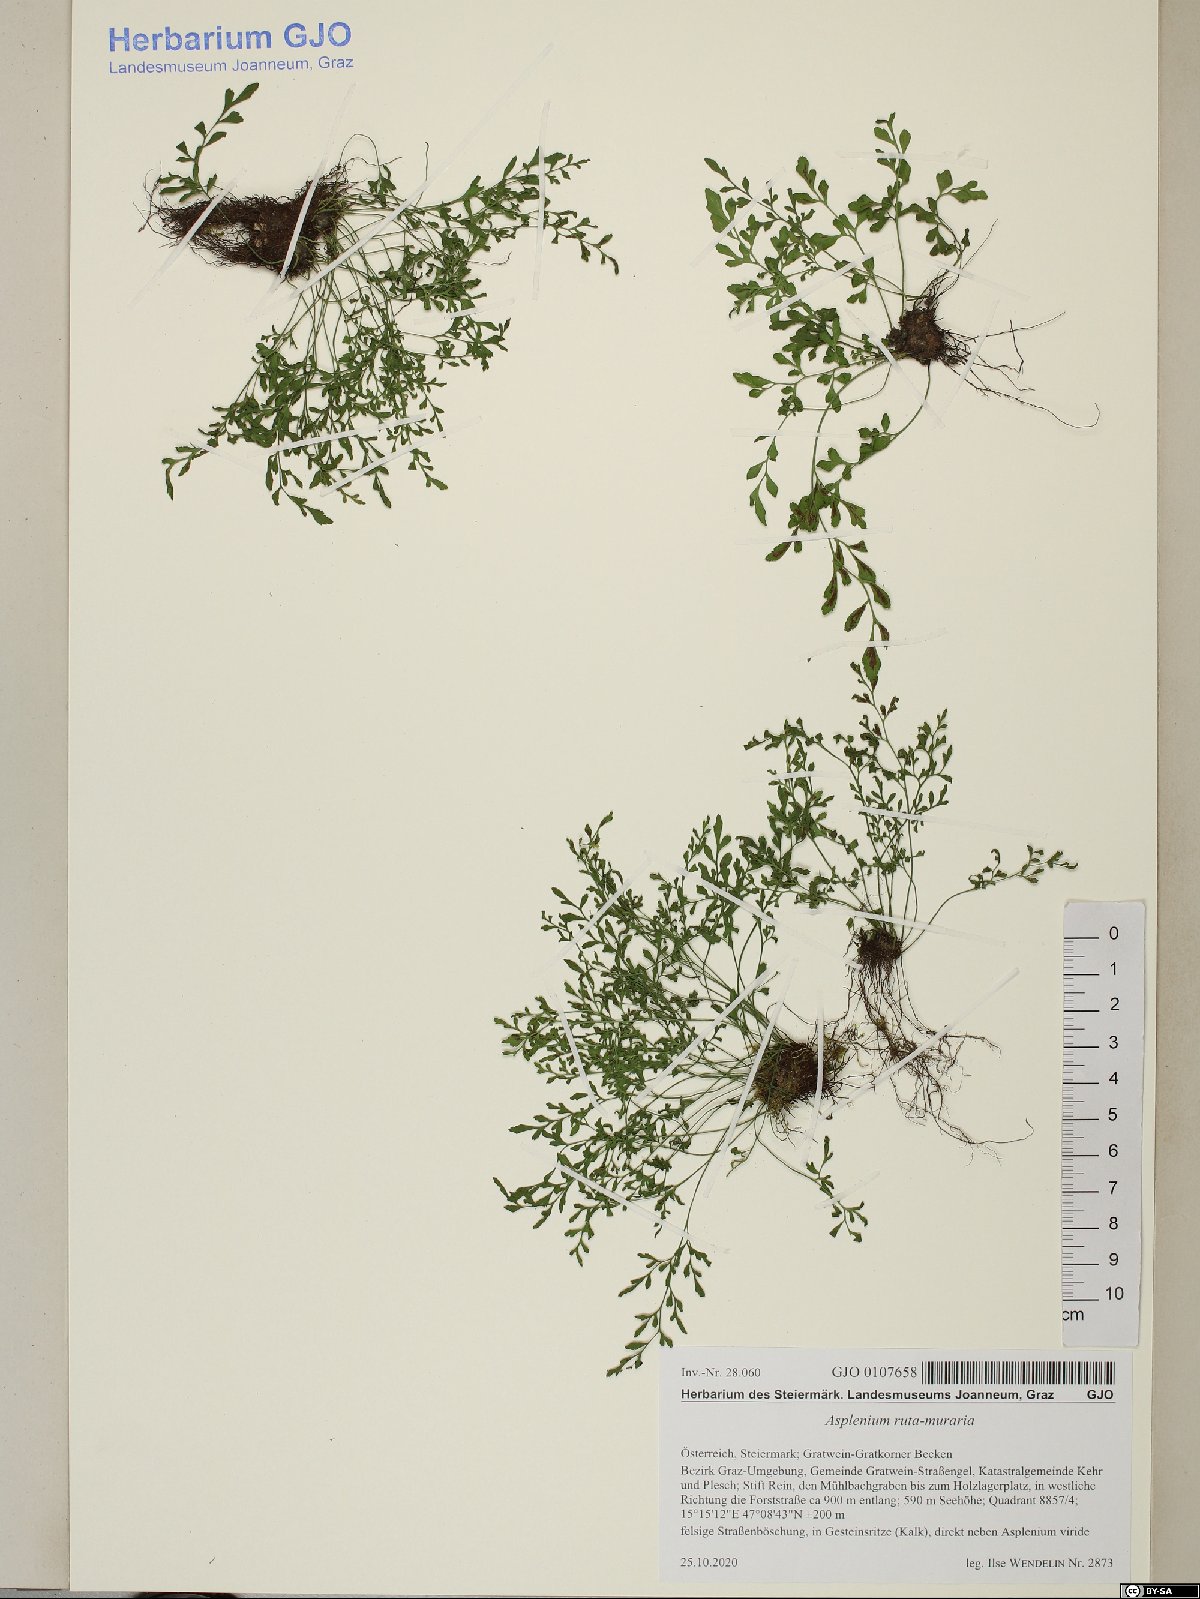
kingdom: Plantae
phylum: Tracheophyta
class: Polypodiopsida
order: Polypodiales
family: Aspleniaceae
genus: Asplenium
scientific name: Asplenium ruta-muraria
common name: Wall-rue
